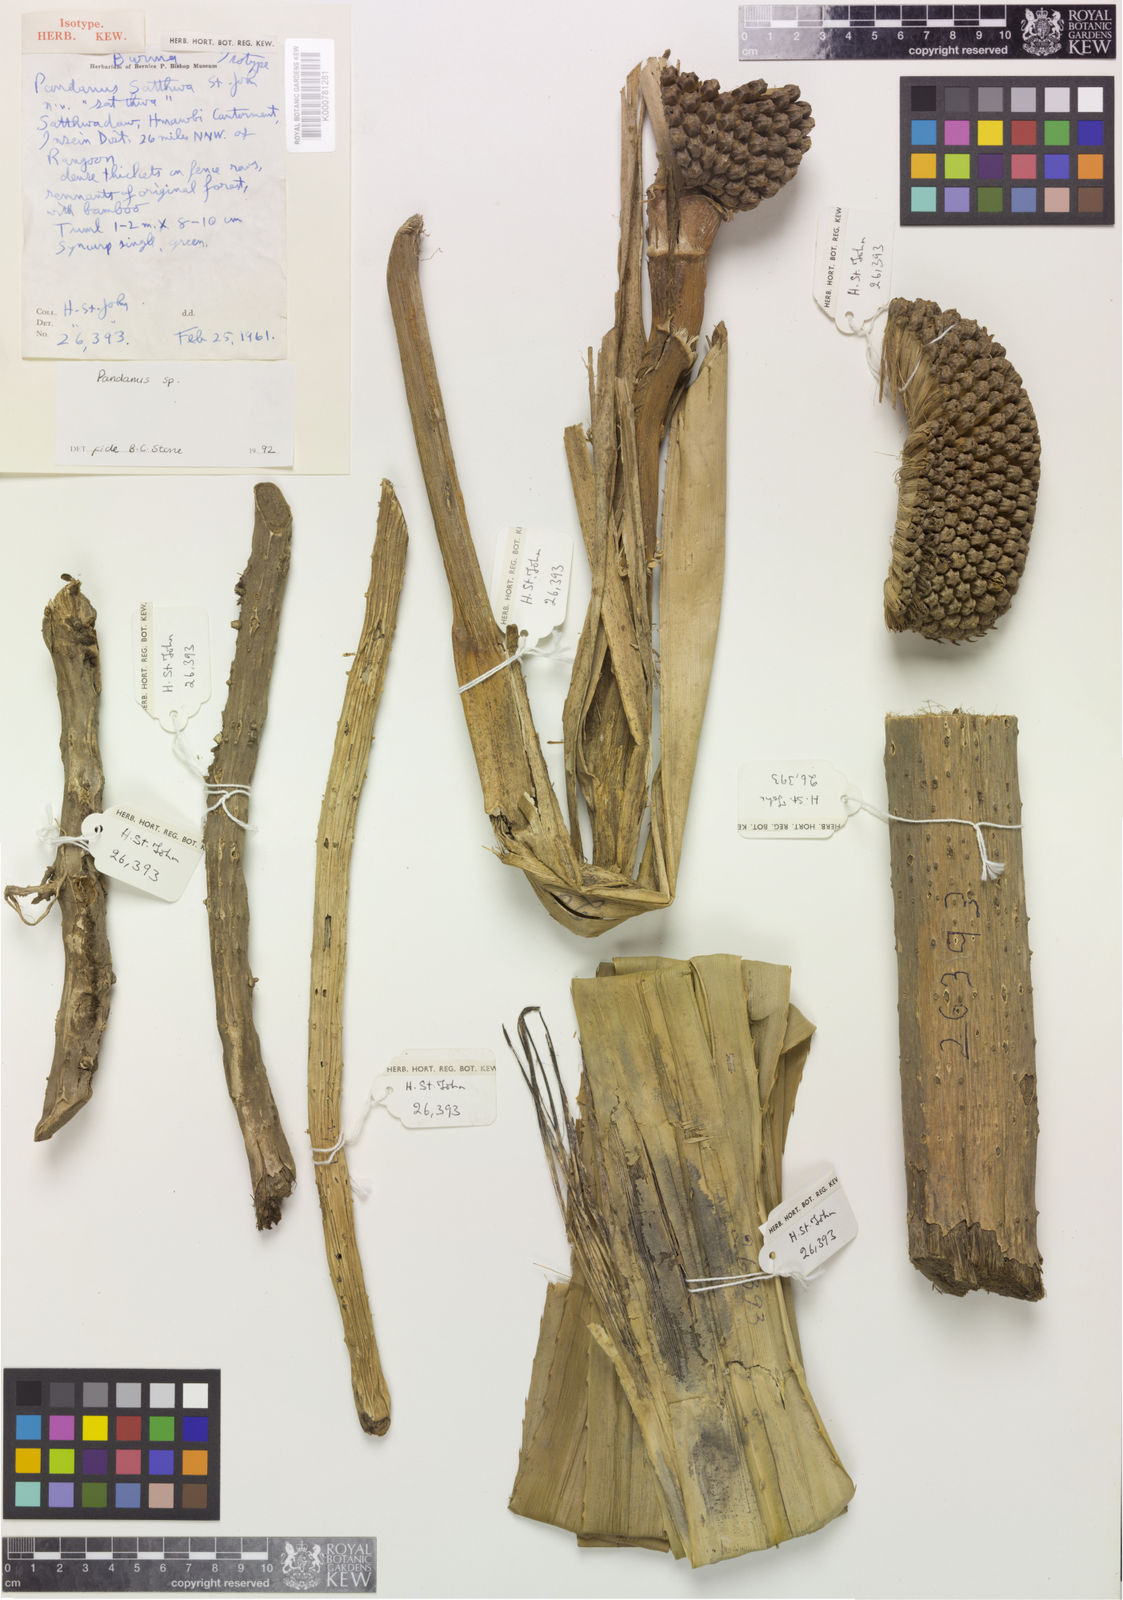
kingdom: Plantae
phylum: Tracheophyta
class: Liliopsida
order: Pandanales
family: Pandanaceae
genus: Pandanus
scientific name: Pandanus
